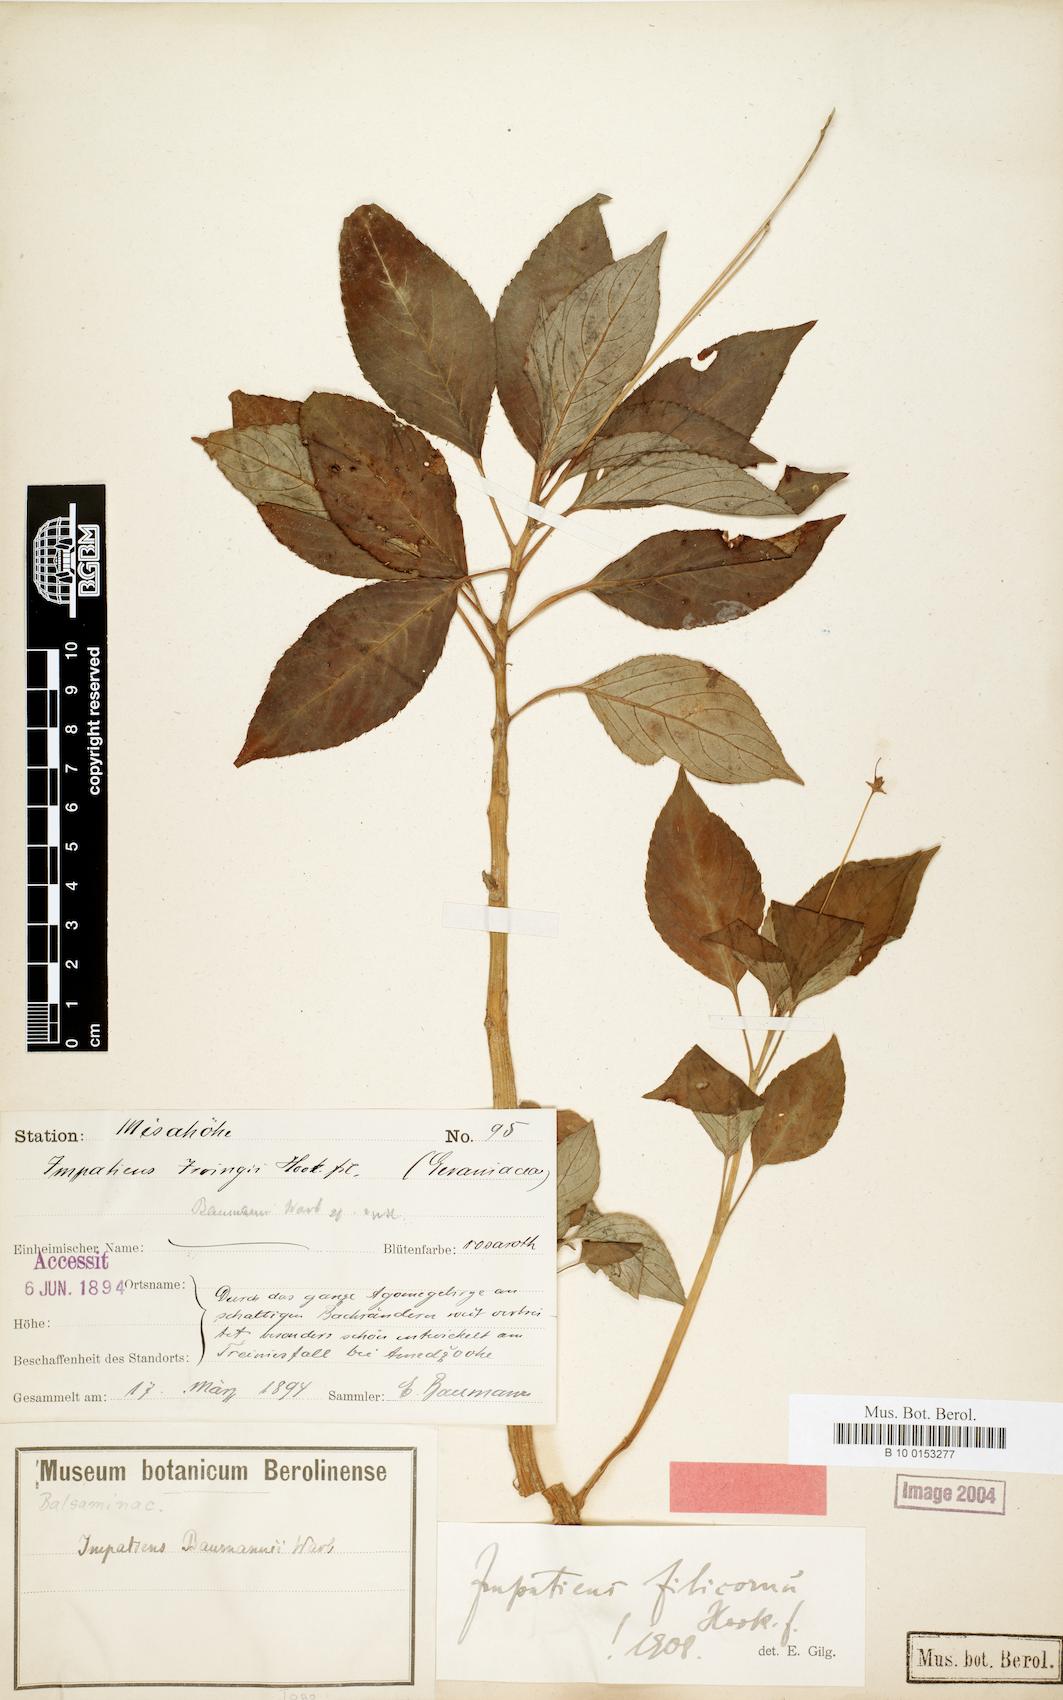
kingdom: Plantae
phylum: Tracheophyta
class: Magnoliopsida
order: Ericales
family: Balsaminaceae
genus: Impatiens
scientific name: Impatiens filicornu
